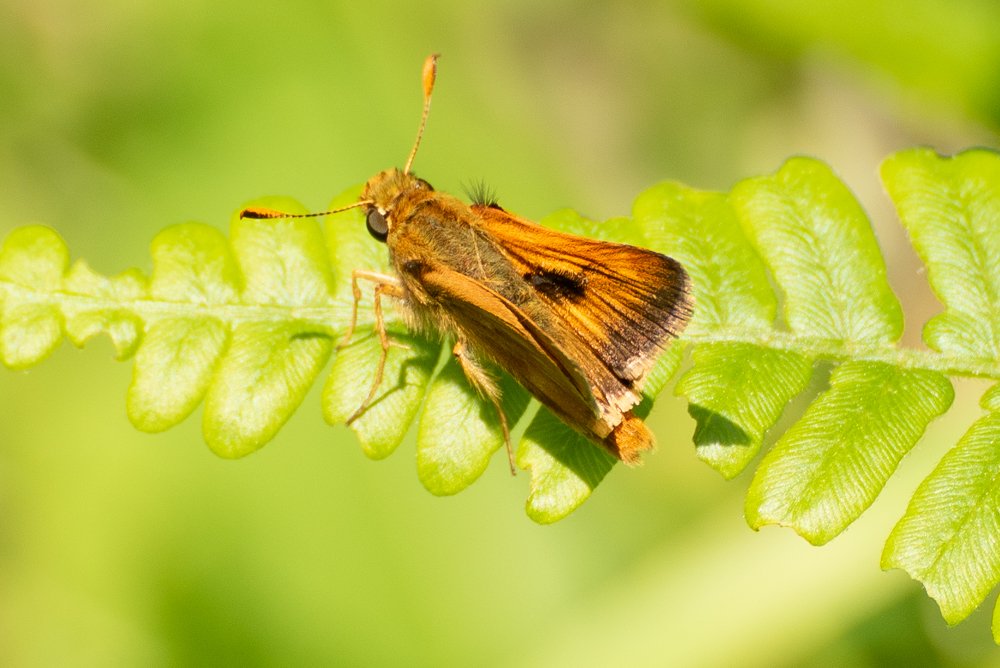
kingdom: Animalia
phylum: Arthropoda
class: Insecta
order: Lepidoptera
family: Hesperiidae
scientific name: Hesperiidae
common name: Skippers
